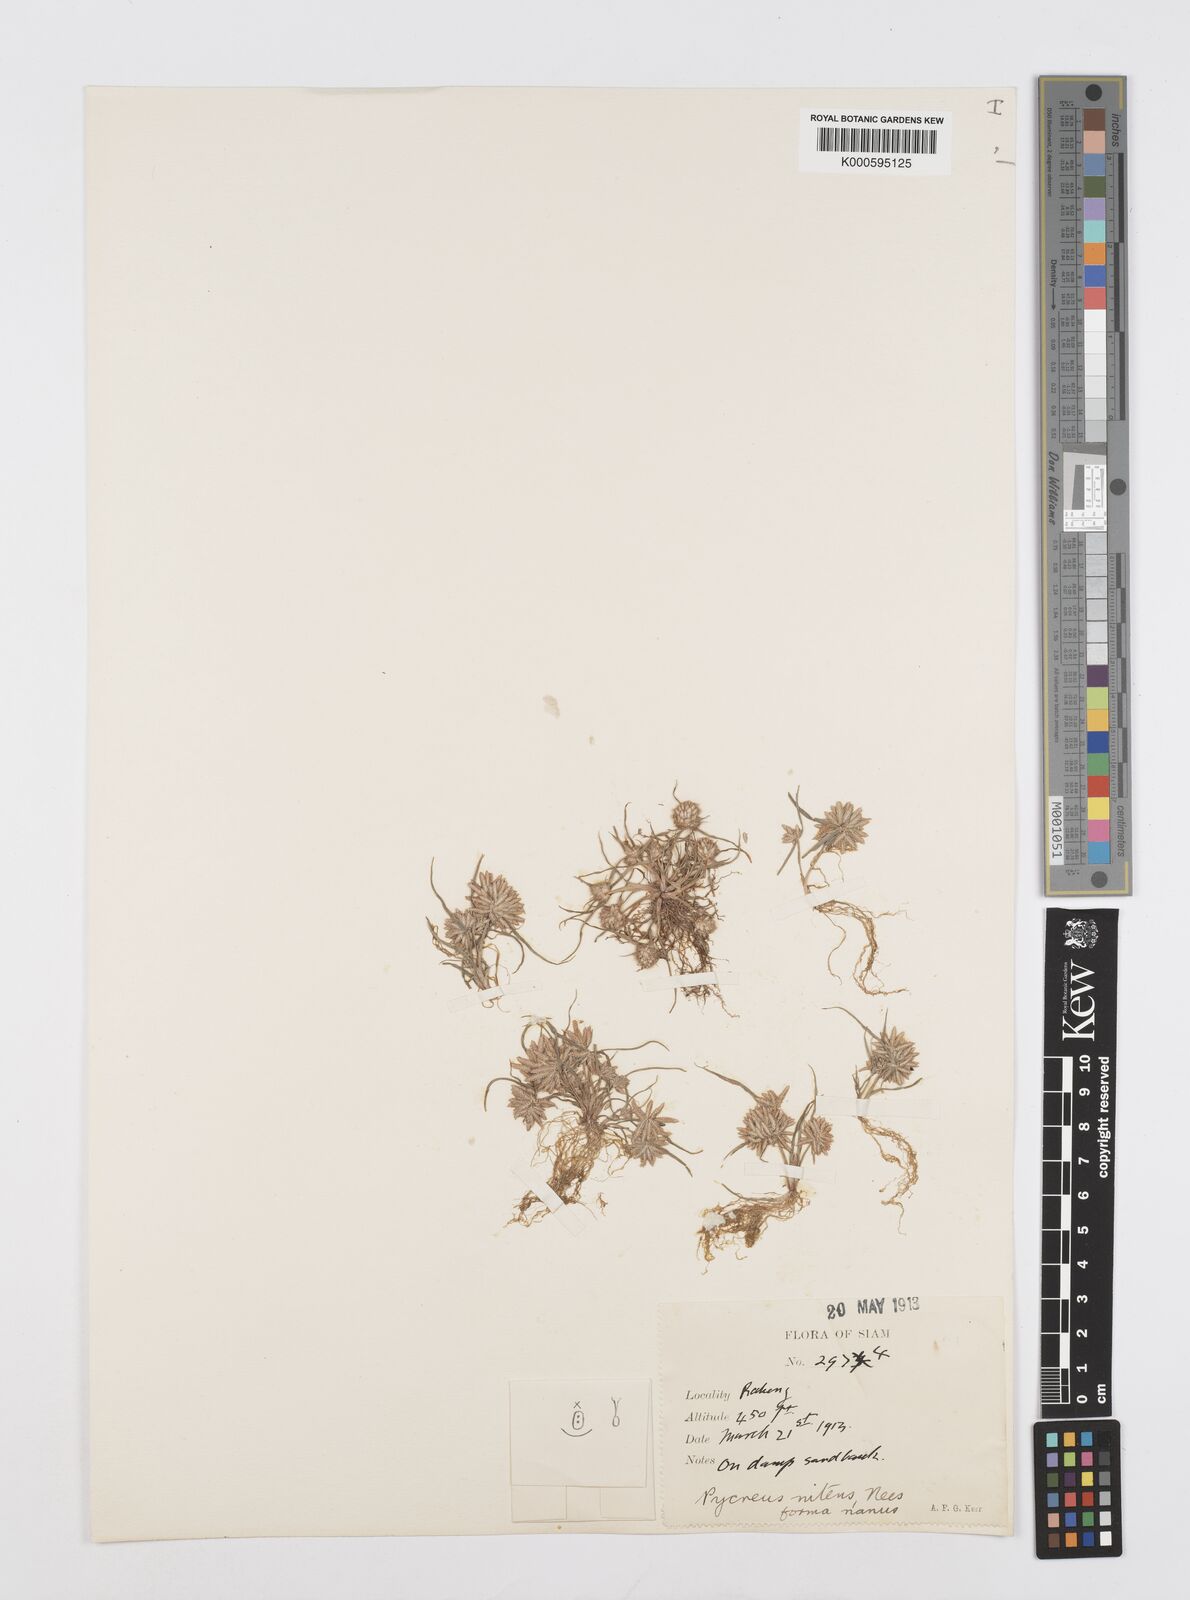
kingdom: Plantae
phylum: Tracheophyta
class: Liliopsida
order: Poales
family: Cyperaceae
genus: Cyperus
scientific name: Cyperus pumilus
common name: Low flatsedge
